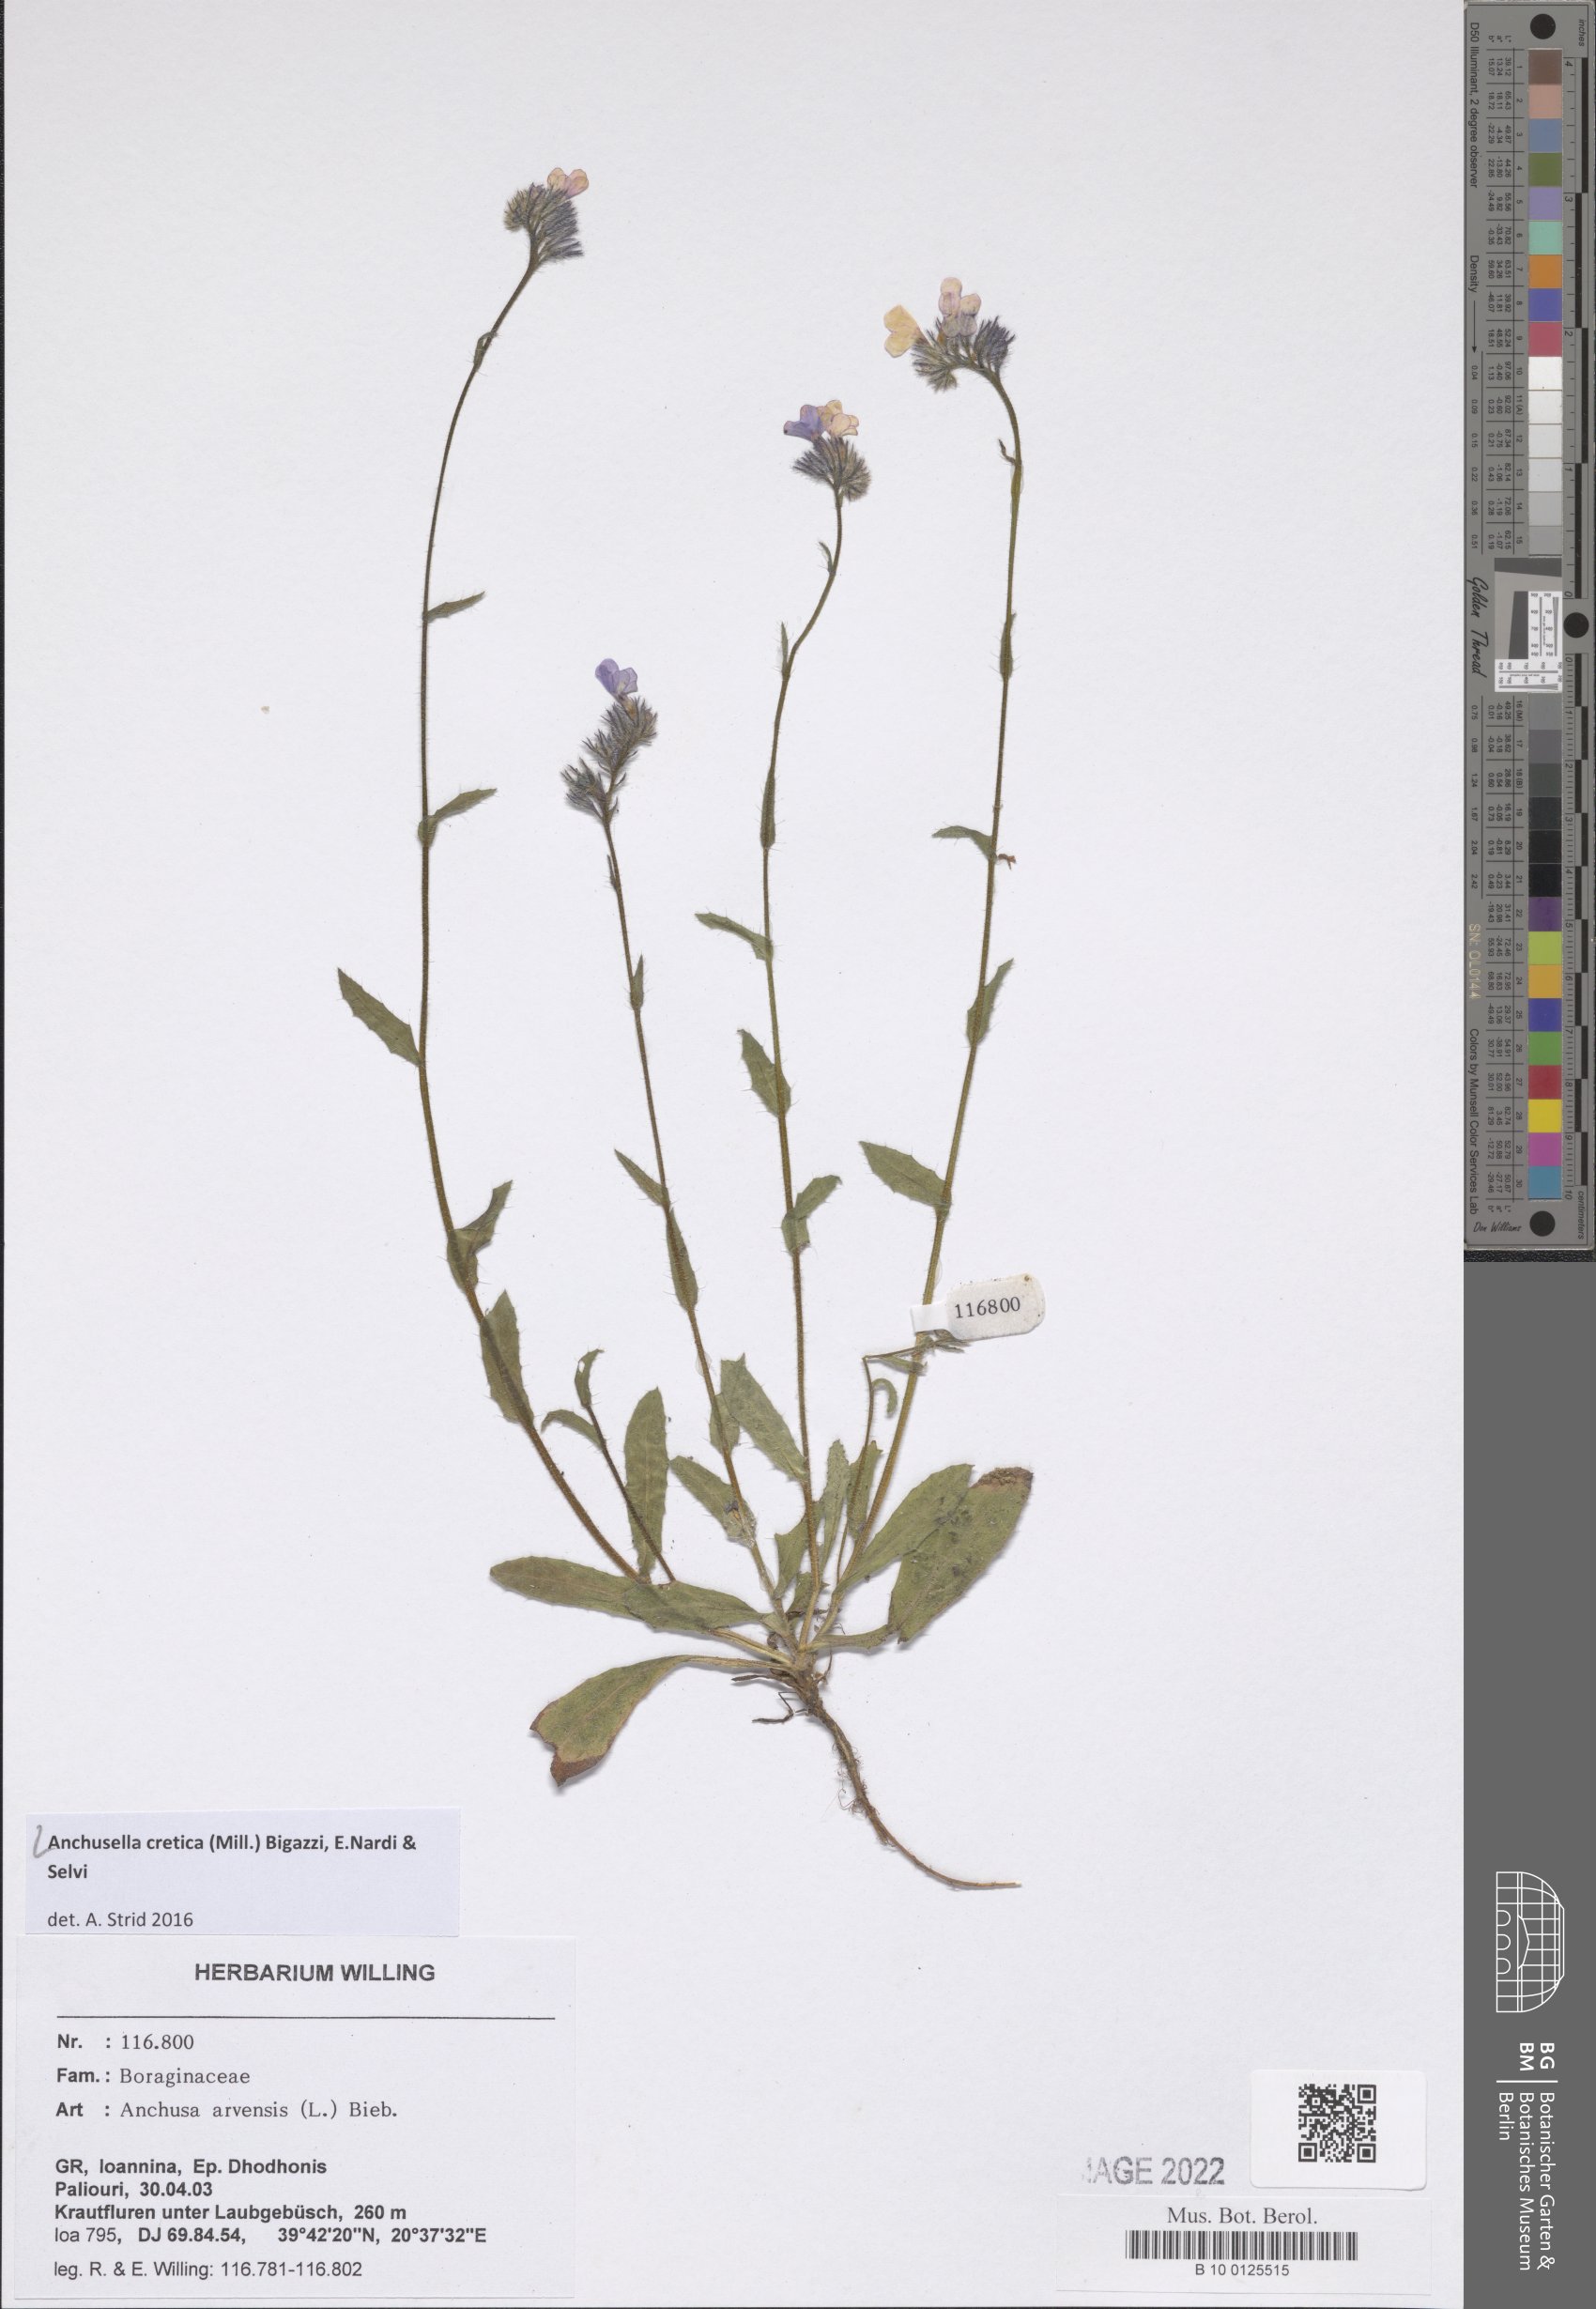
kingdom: Plantae
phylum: Tracheophyta
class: Magnoliopsida
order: Boraginales
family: Boraginaceae
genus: Anchusella
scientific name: Anchusella cretica
